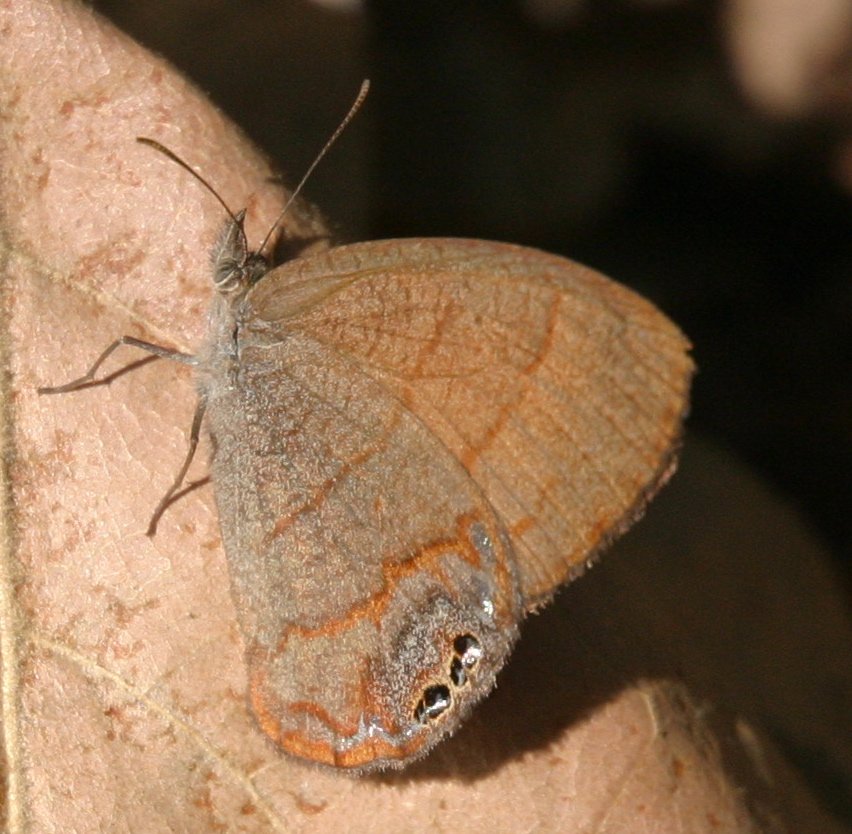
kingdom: Animalia
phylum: Arthropoda
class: Insecta
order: Lepidoptera
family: Nymphalidae
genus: Euptychia
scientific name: Euptychia pyracmon
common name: Nabokov's Satyr
